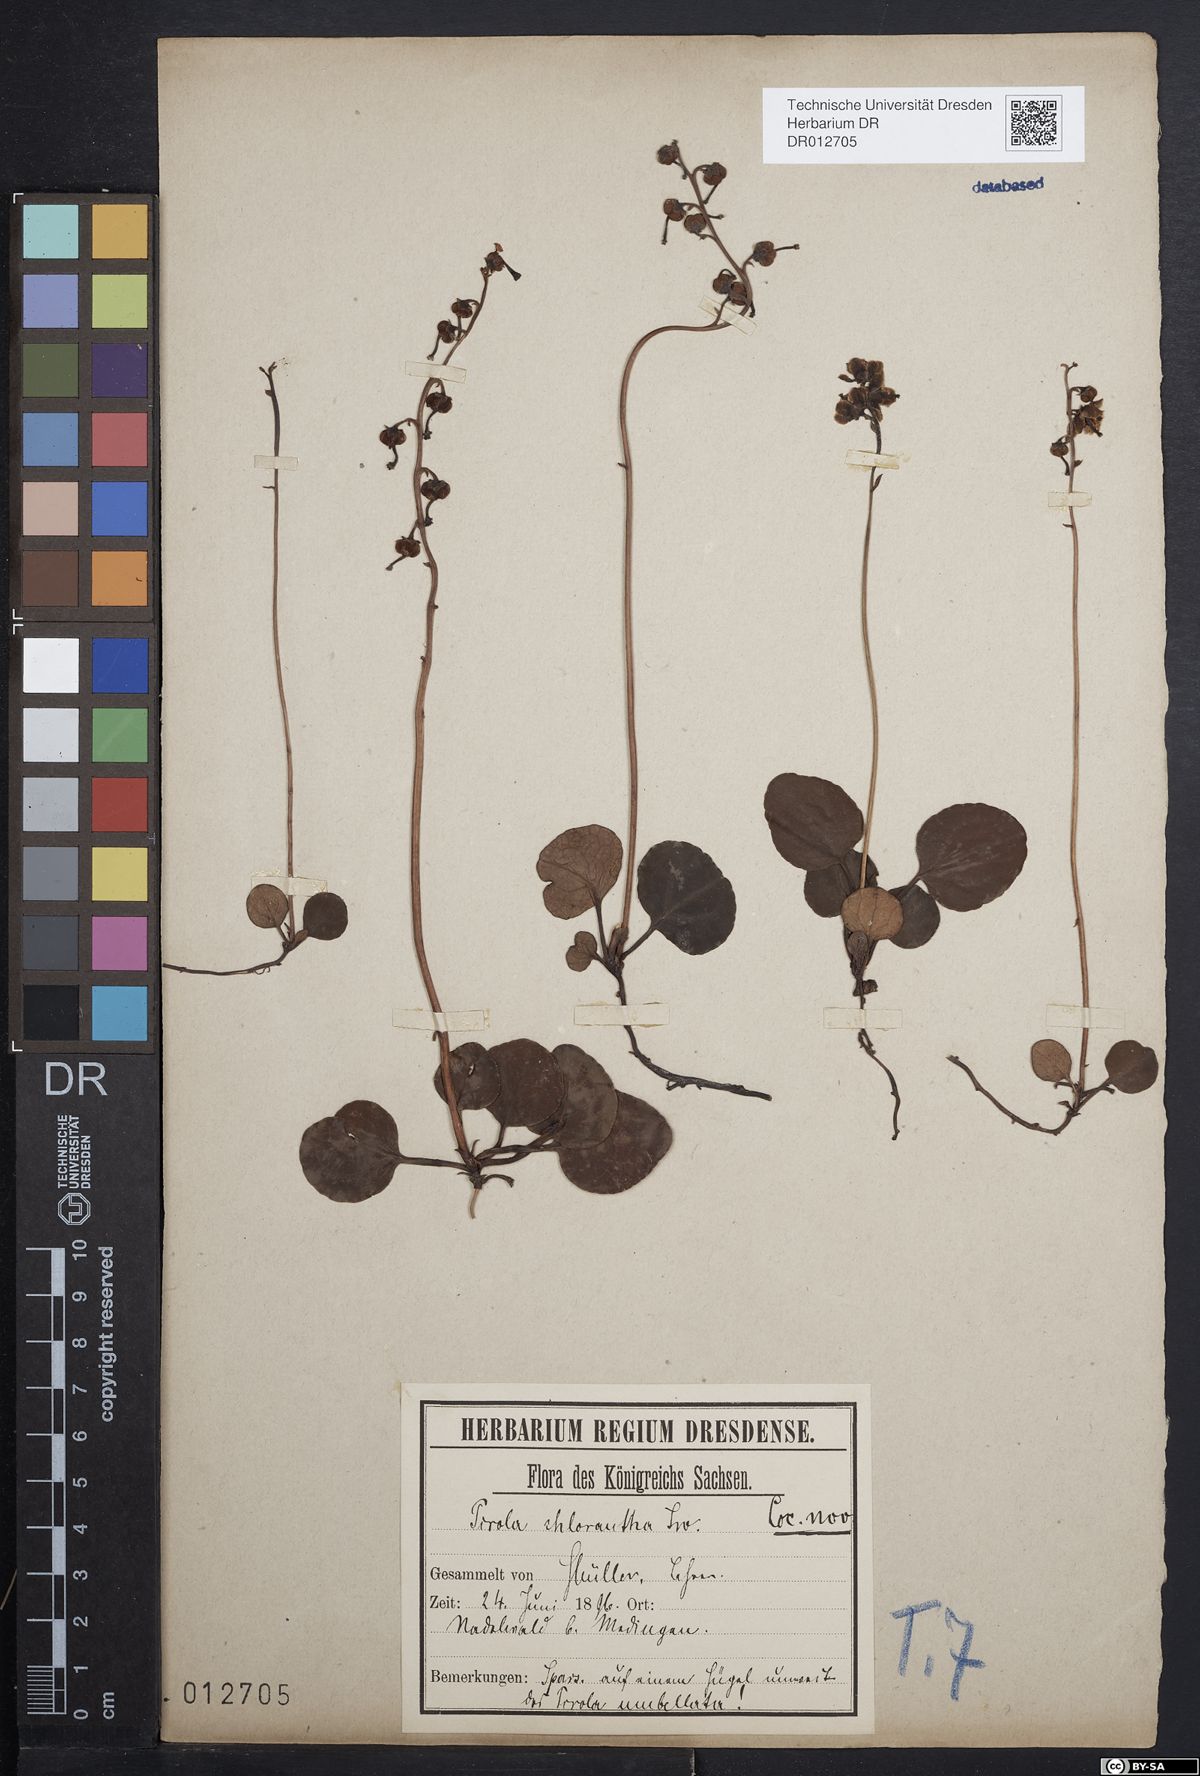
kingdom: Plantae
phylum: Tracheophyta
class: Magnoliopsida
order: Ericales
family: Ericaceae
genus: Pyrola
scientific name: Pyrola chlorantha
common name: Green wintergreen
